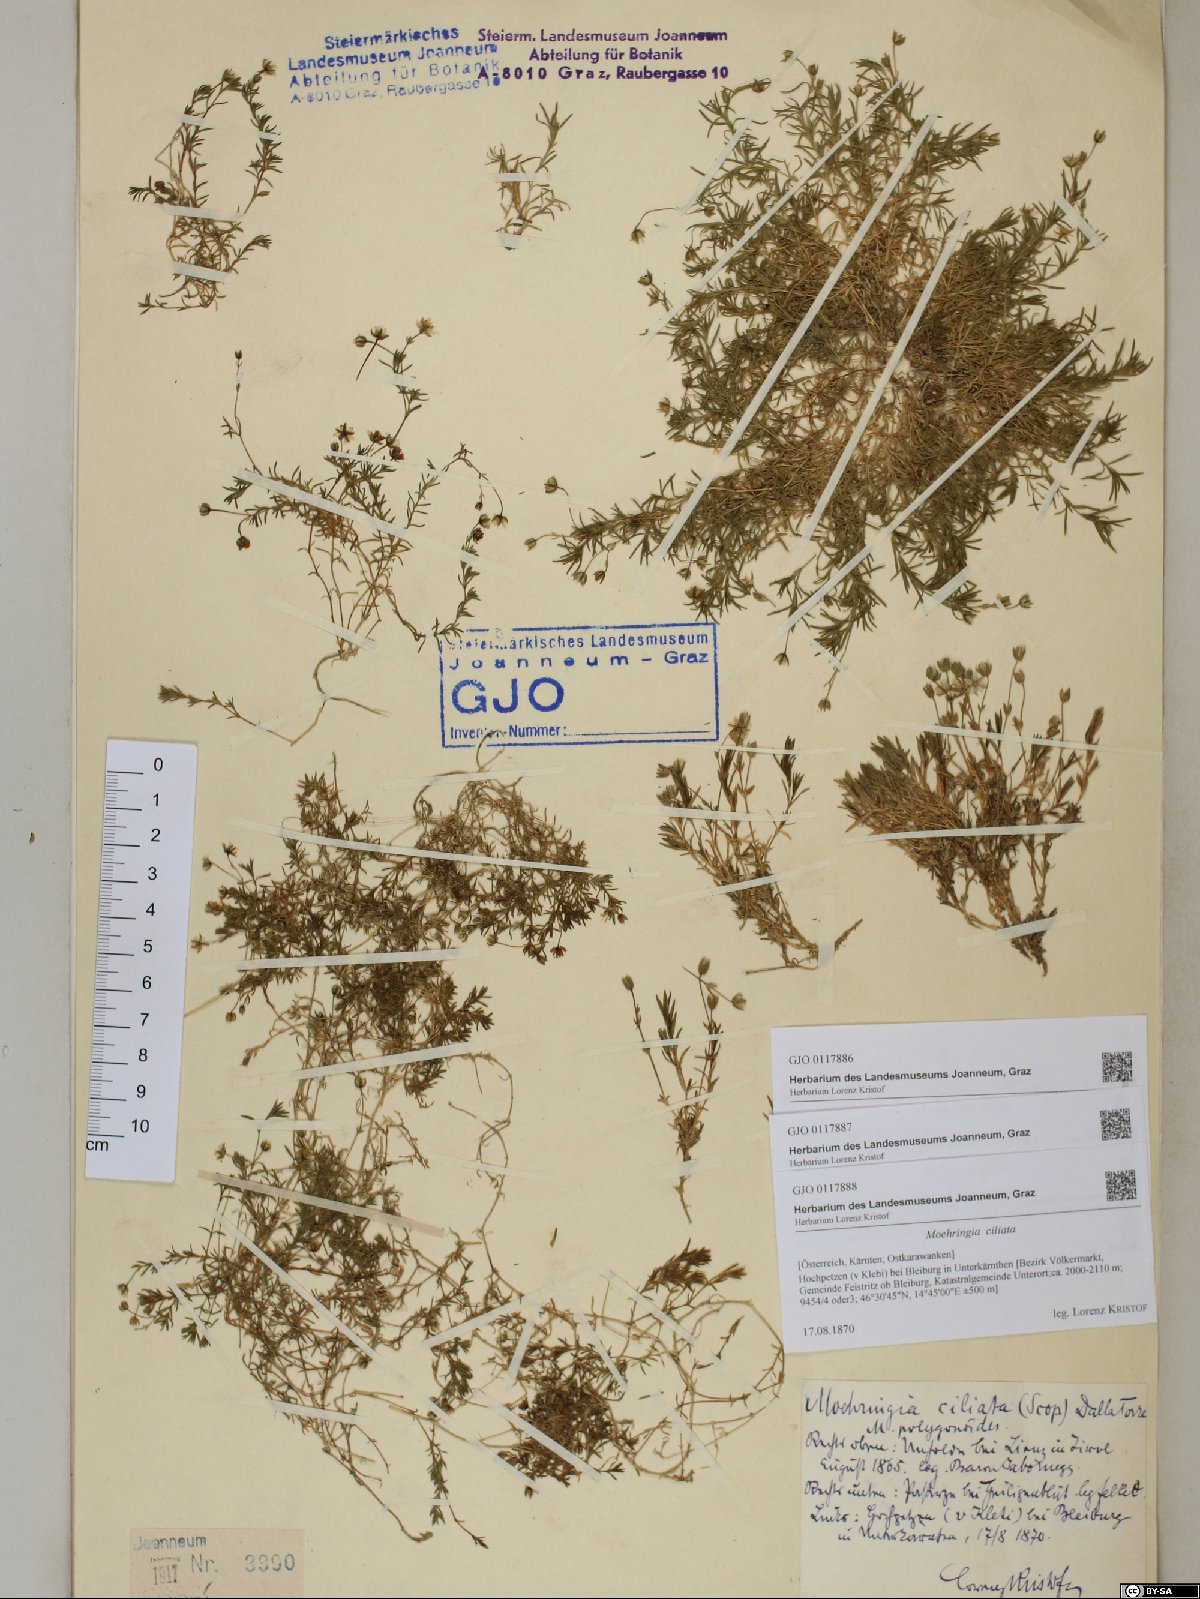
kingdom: Plantae
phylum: Tracheophyta
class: Magnoliopsida
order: Caryophyllales
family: Caryophyllaceae
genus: Moehringia
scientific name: Moehringia ciliata
